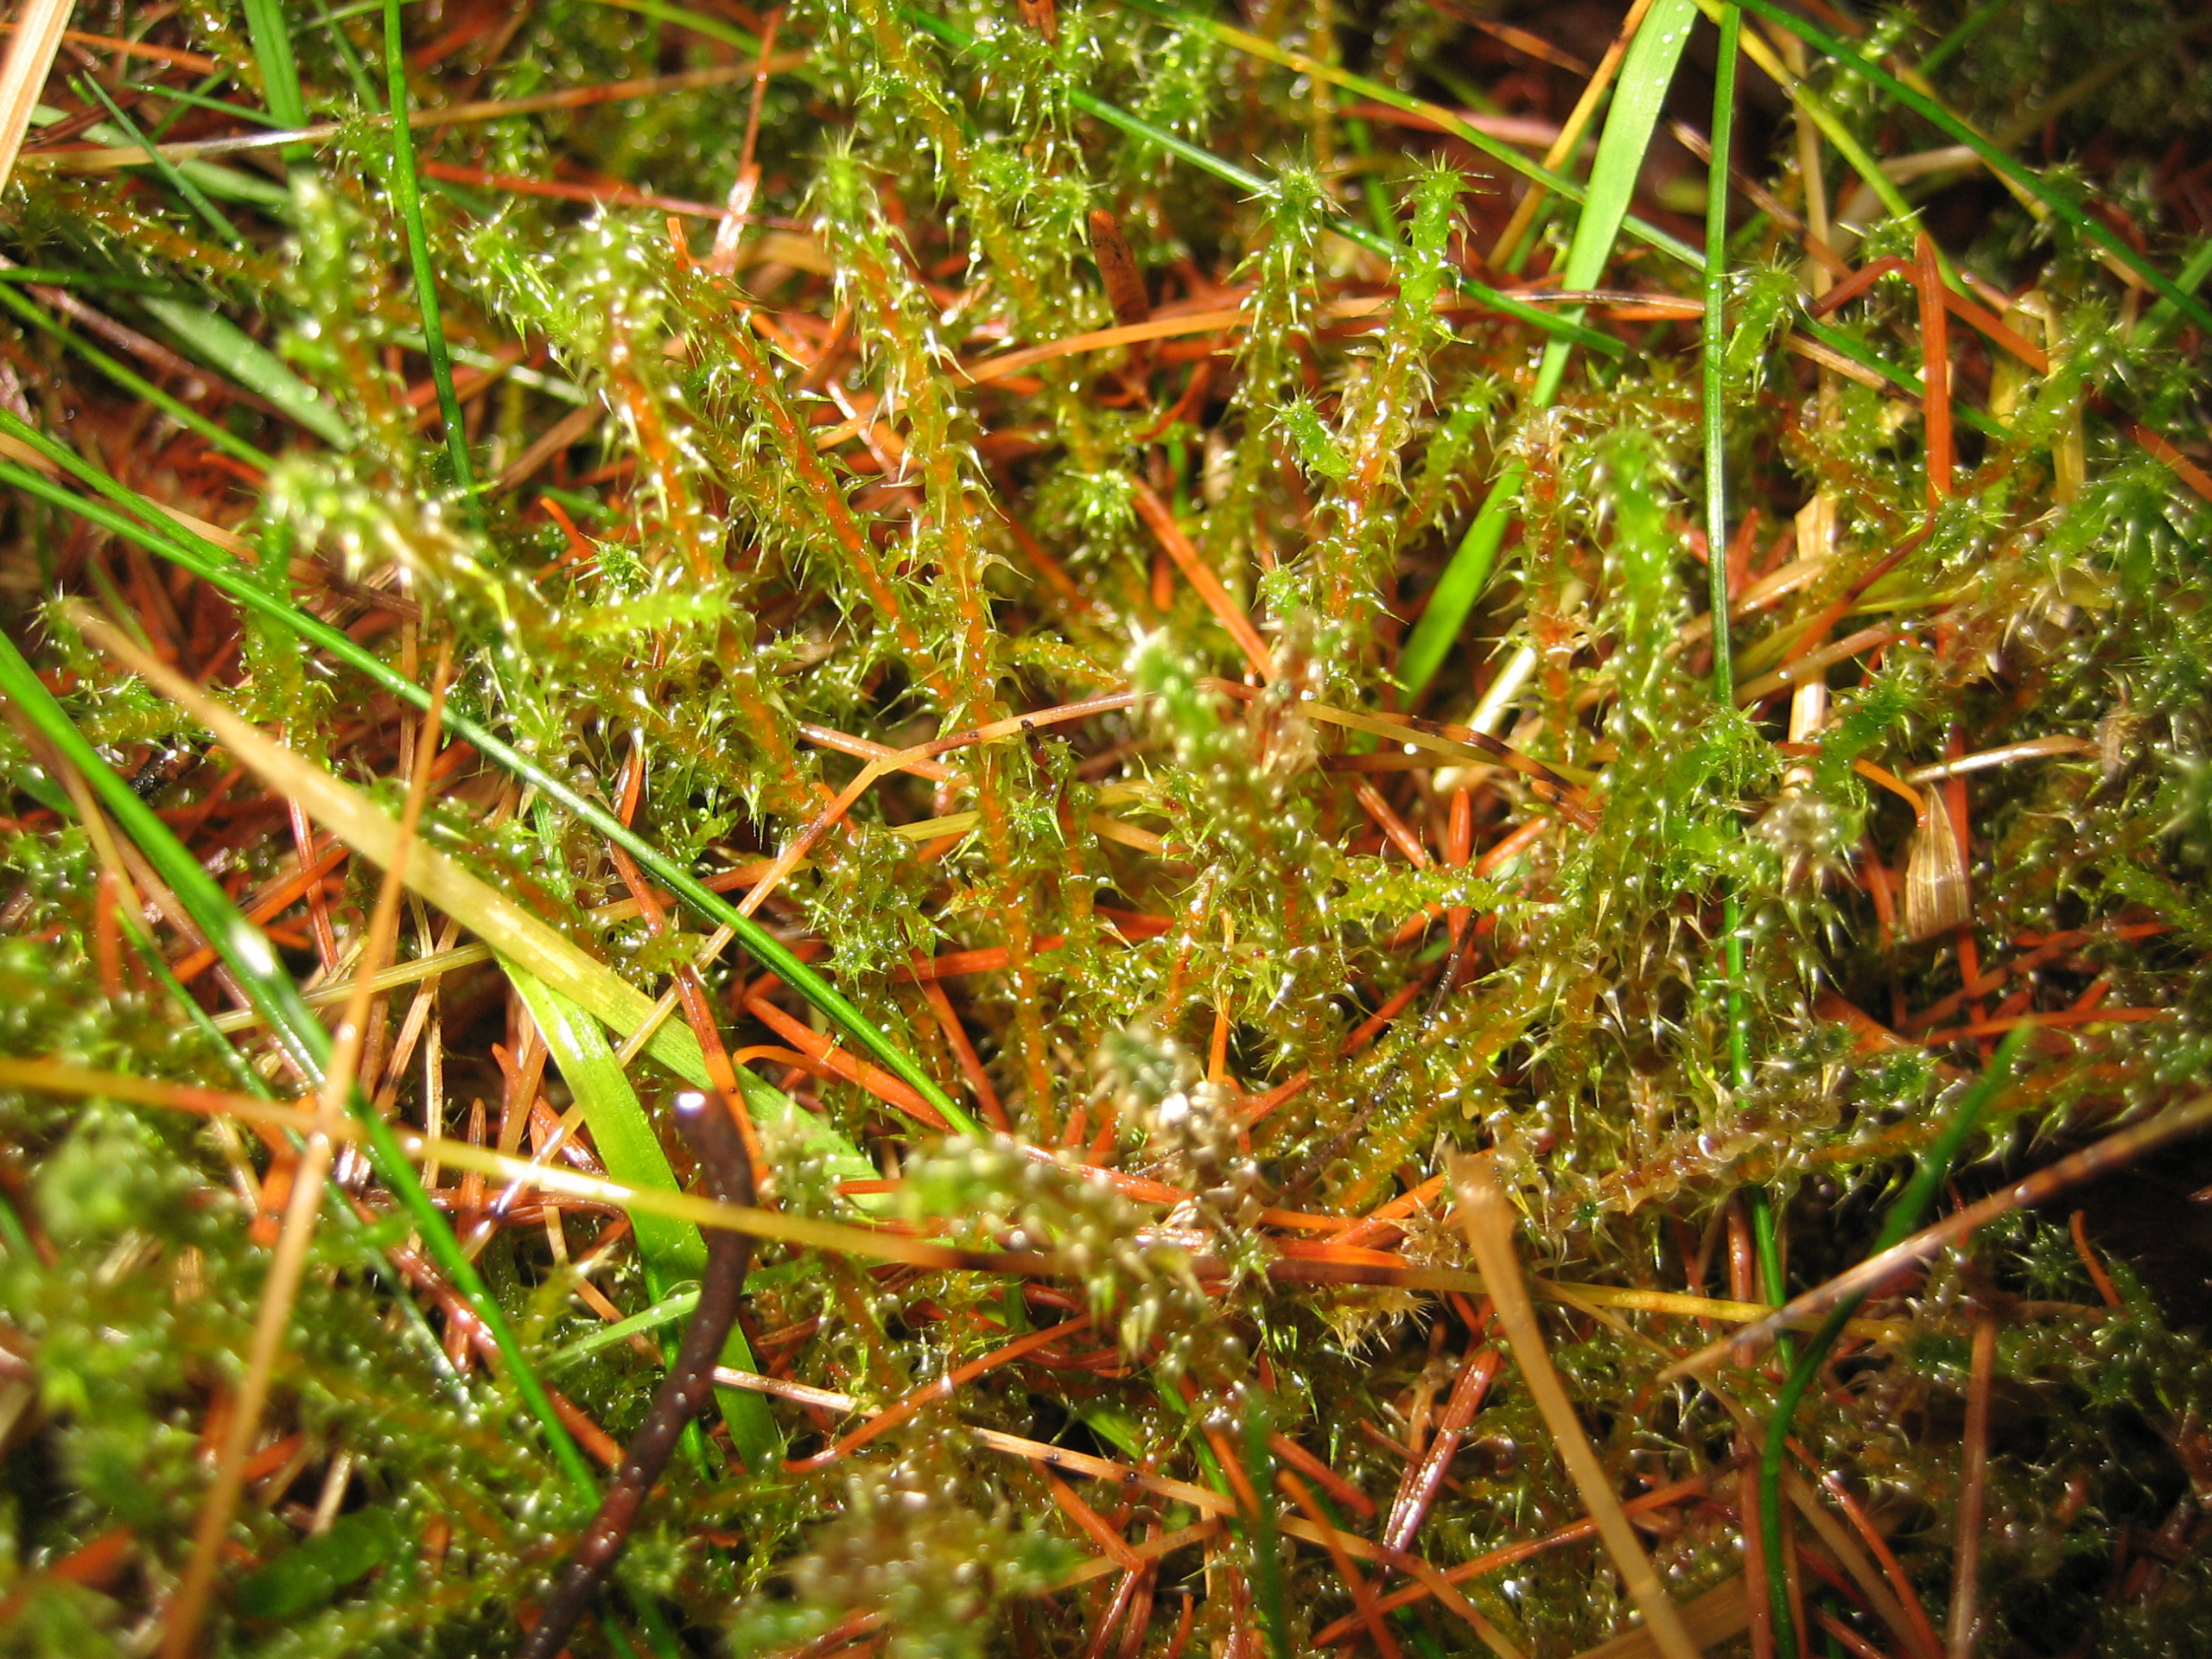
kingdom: Plantae
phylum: Bryophyta
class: Bryopsida
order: Hypnales
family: Hylocomiaceae
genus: Rhytidiadelphus
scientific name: Rhytidiadelphus squarrosus
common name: Plæne-kransemos
